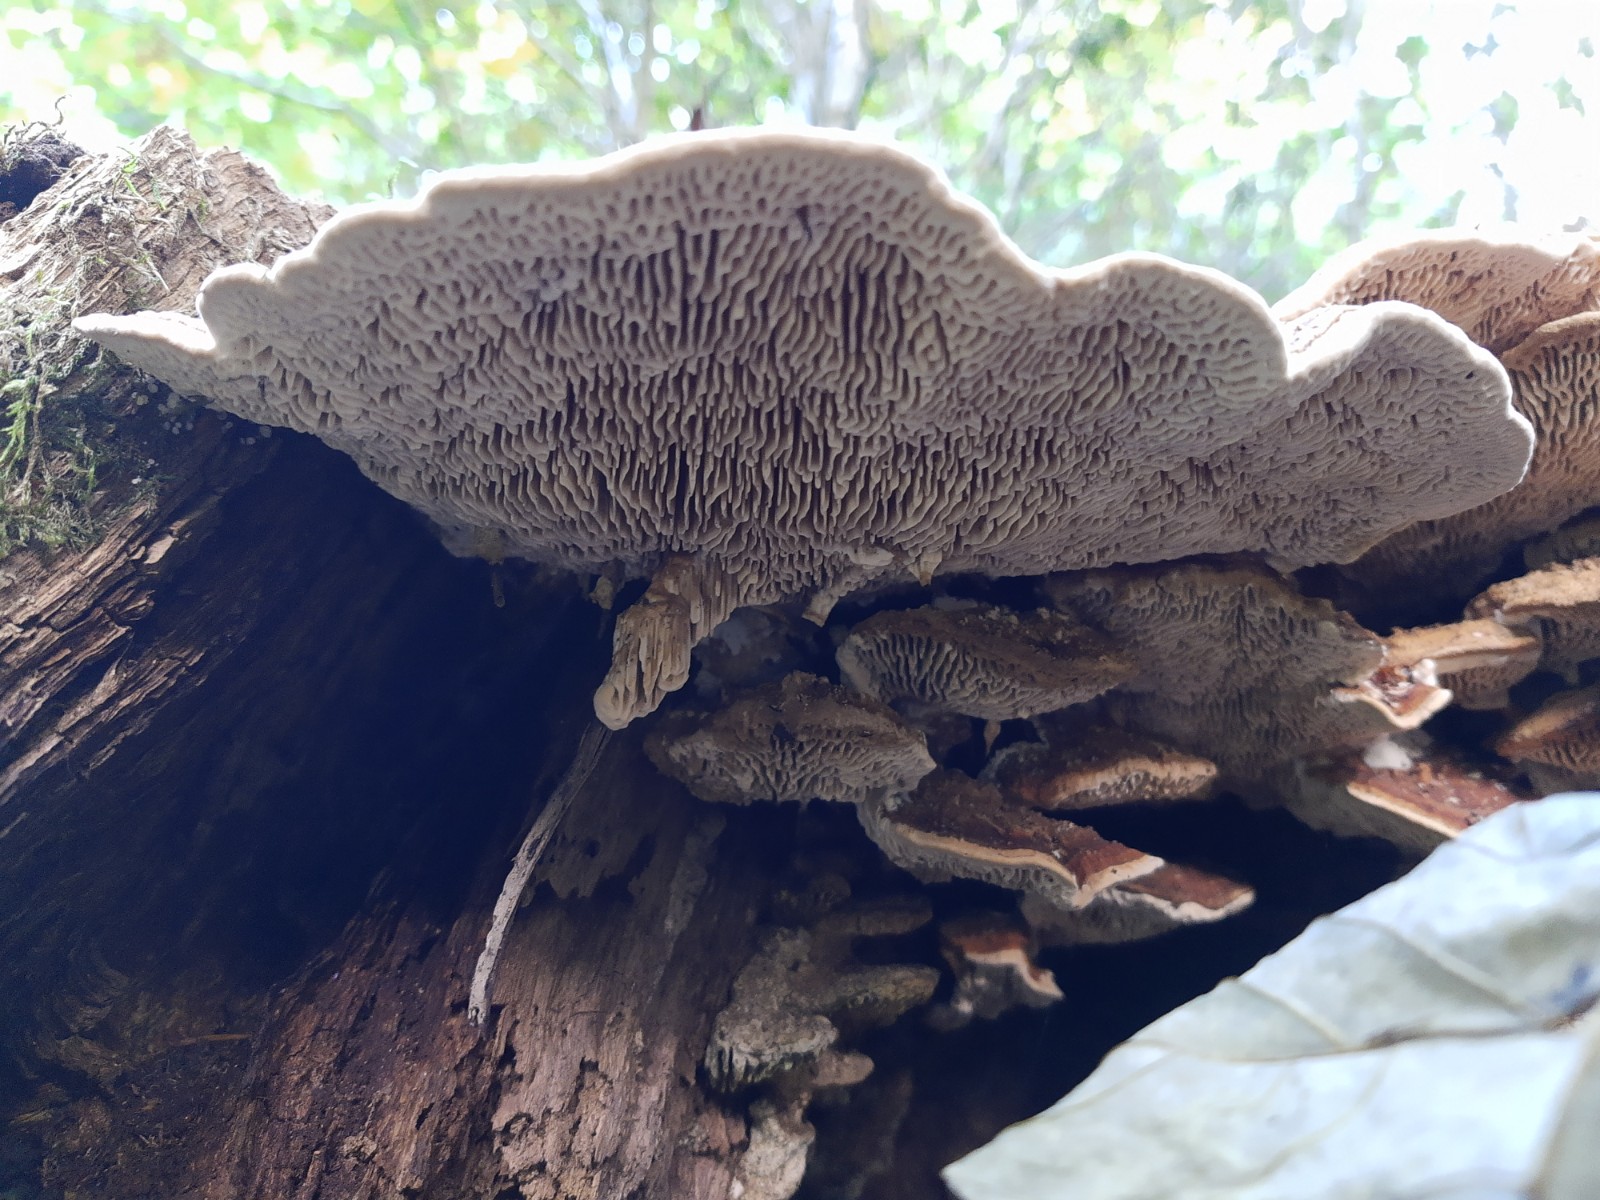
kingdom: Fungi
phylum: Basidiomycota
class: Agaricomycetes
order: Polyporales
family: Fomitopsidaceae
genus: Daedalea
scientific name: Daedalea quercina
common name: ege-labyrintsvamp
